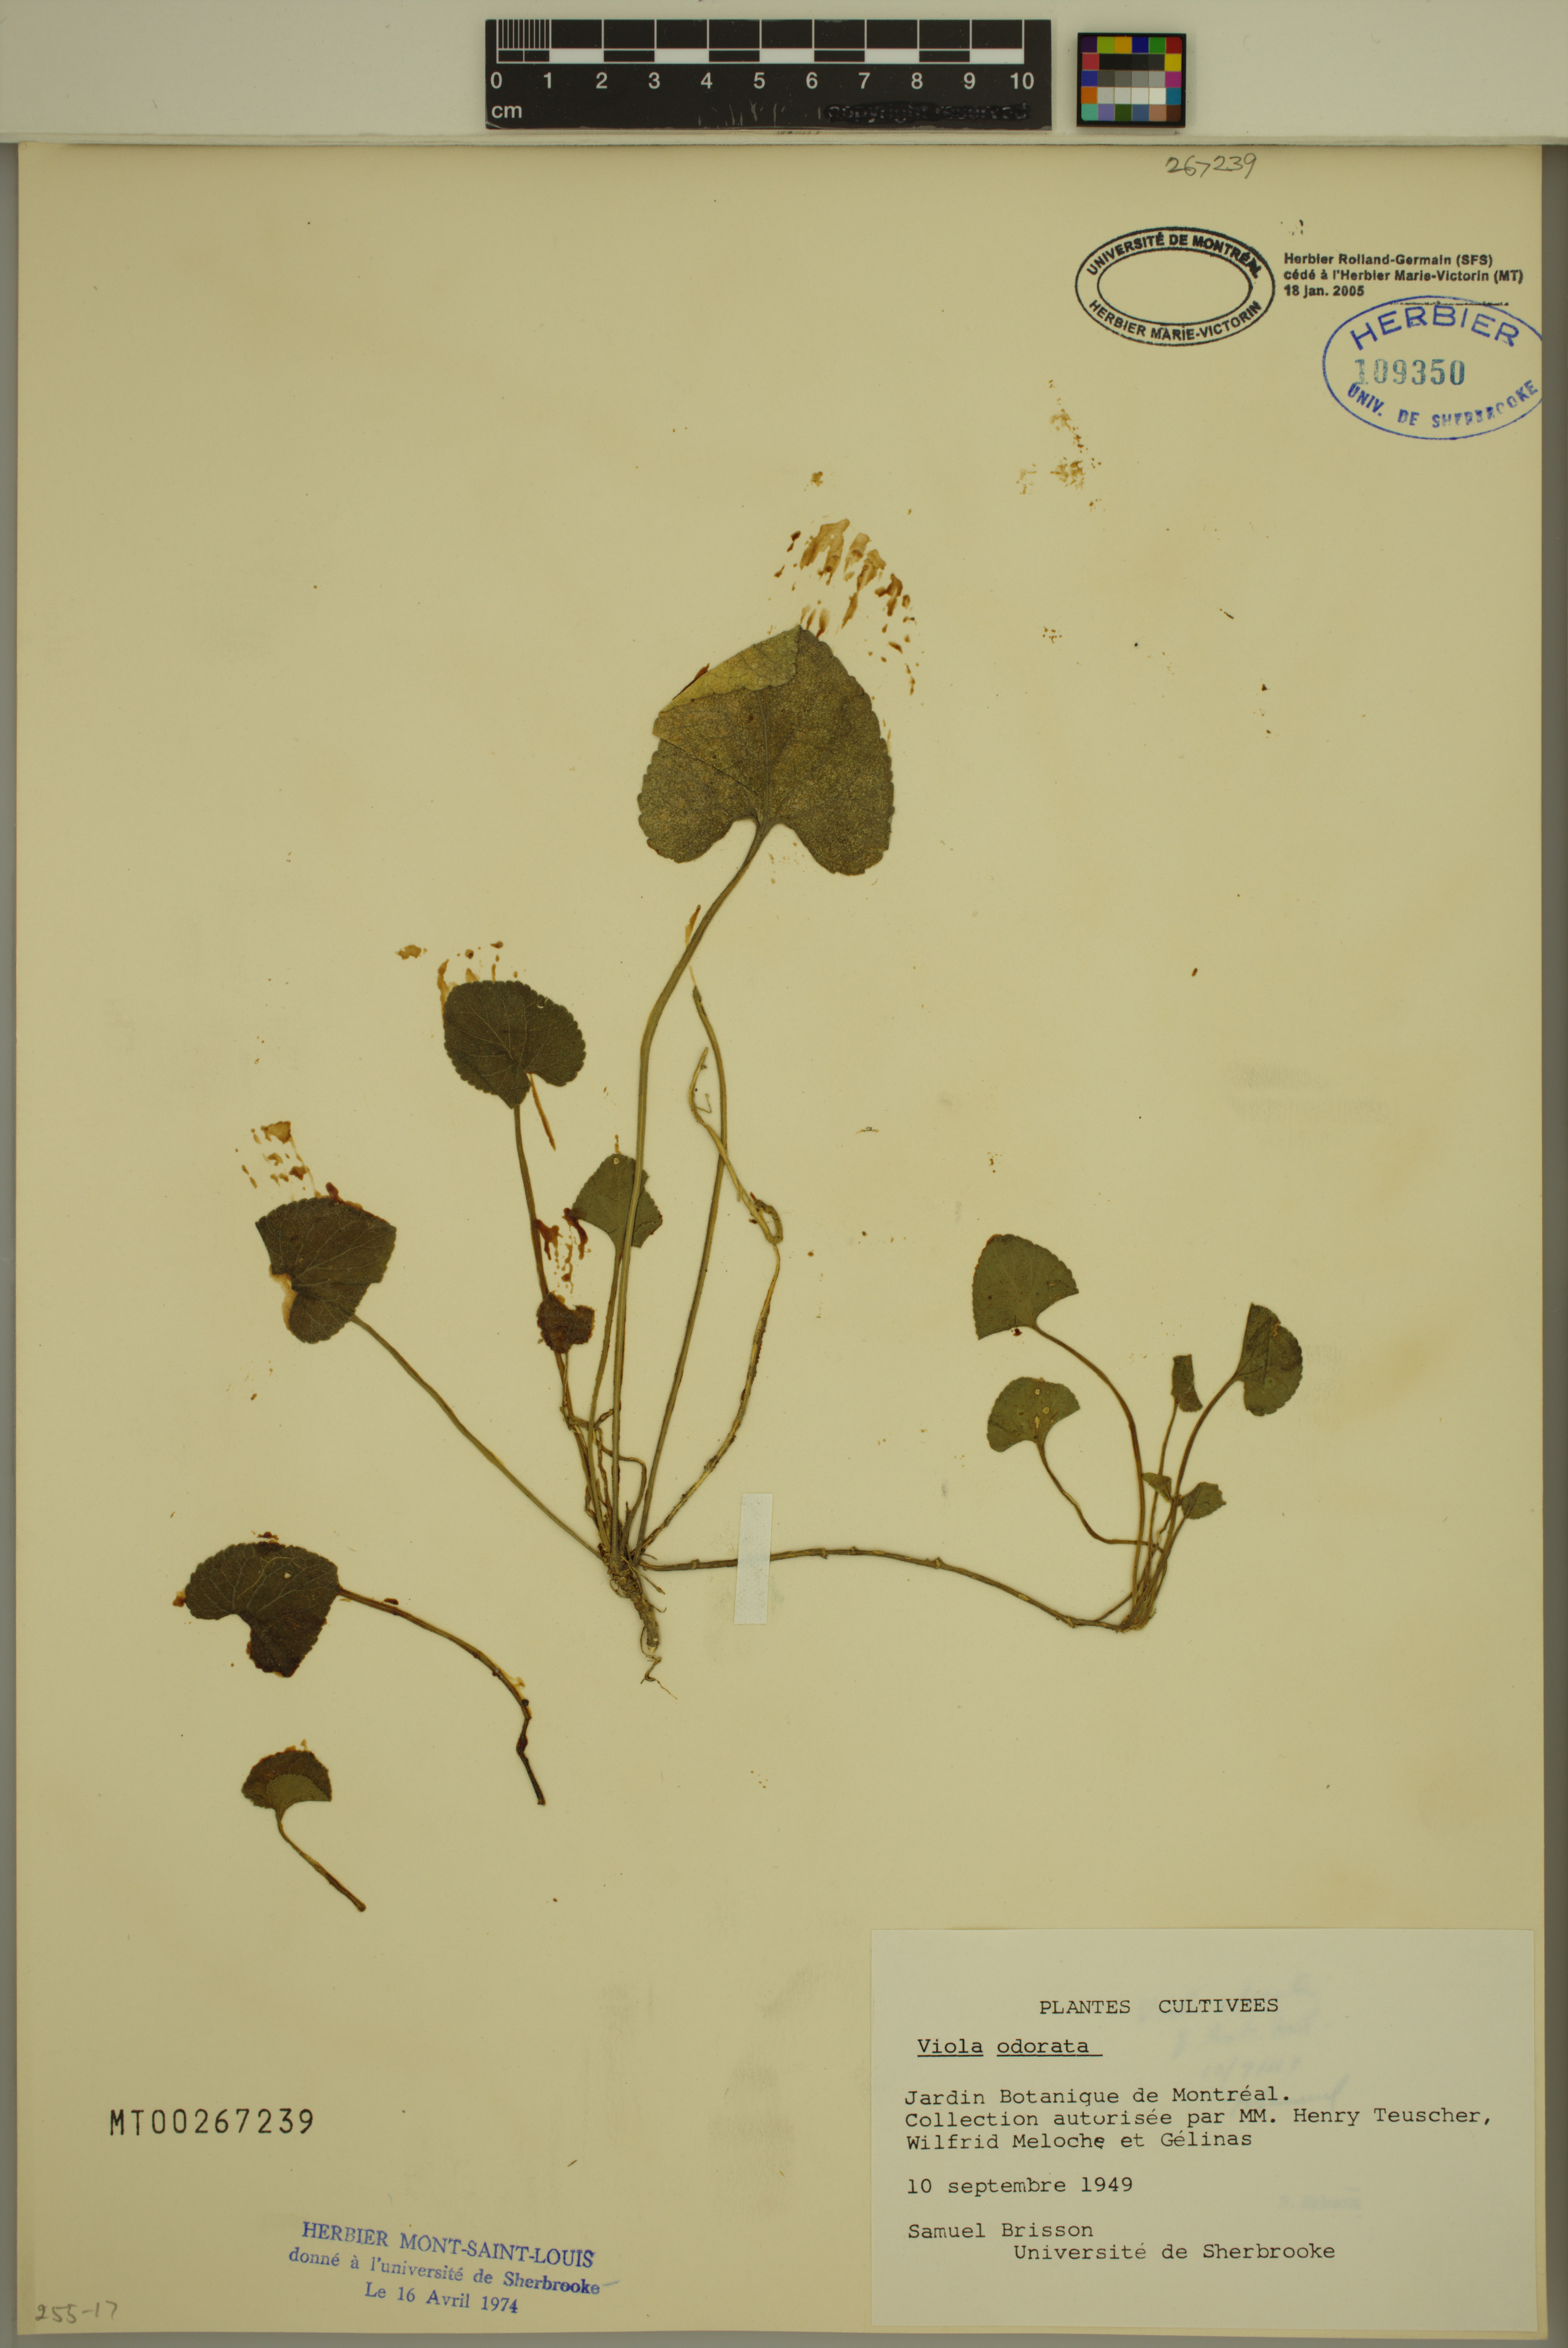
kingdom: Plantae
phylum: Tracheophyta
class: Magnoliopsida
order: Malpighiales
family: Violaceae
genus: Viola
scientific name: Viola odorata
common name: Sweet violet
